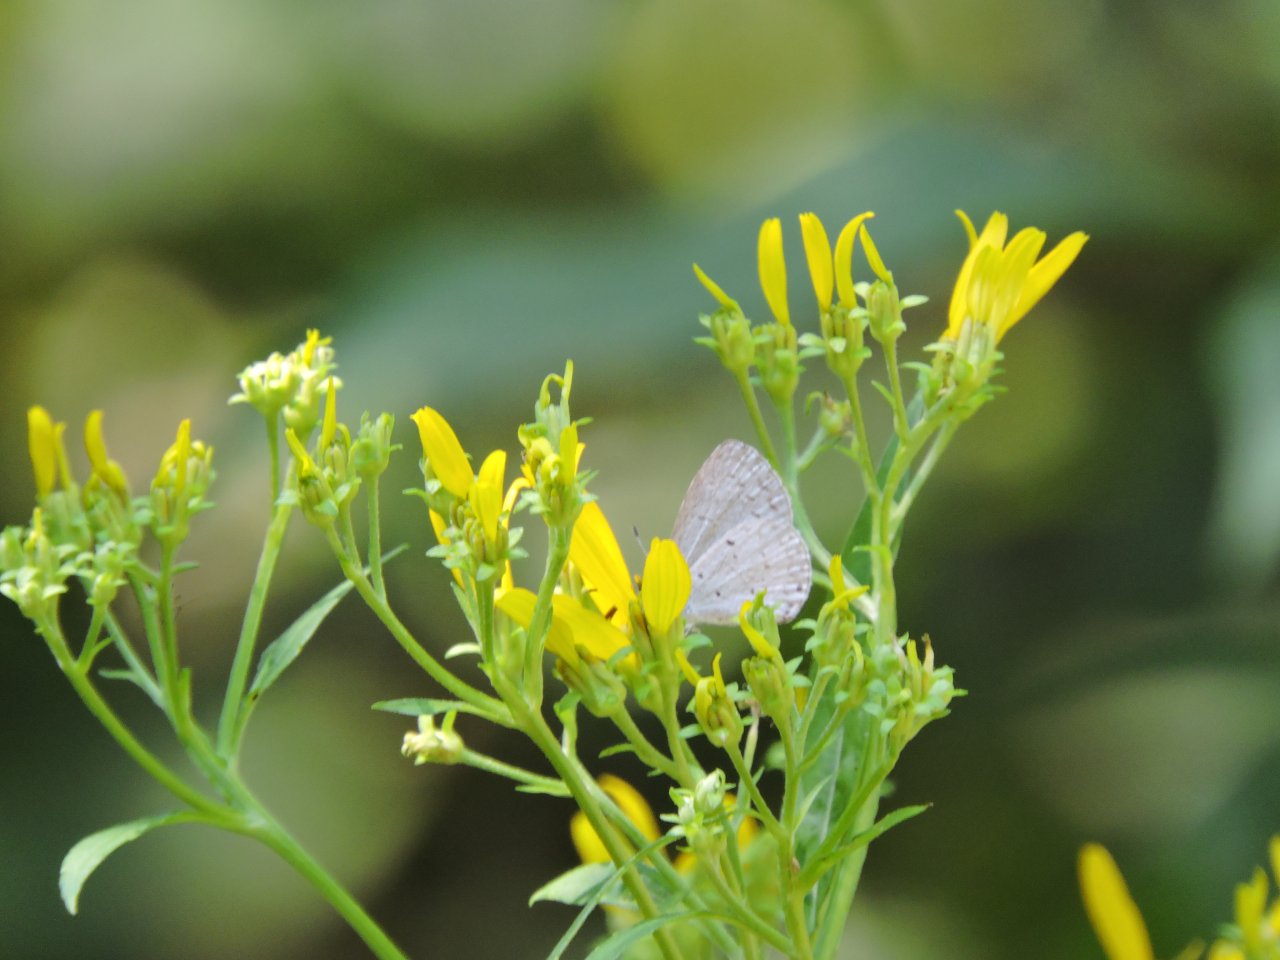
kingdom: Animalia
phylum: Arthropoda
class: Insecta
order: Lepidoptera
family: Lycaenidae
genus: Cyaniris
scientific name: Cyaniris neglecta
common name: Summer Azure
